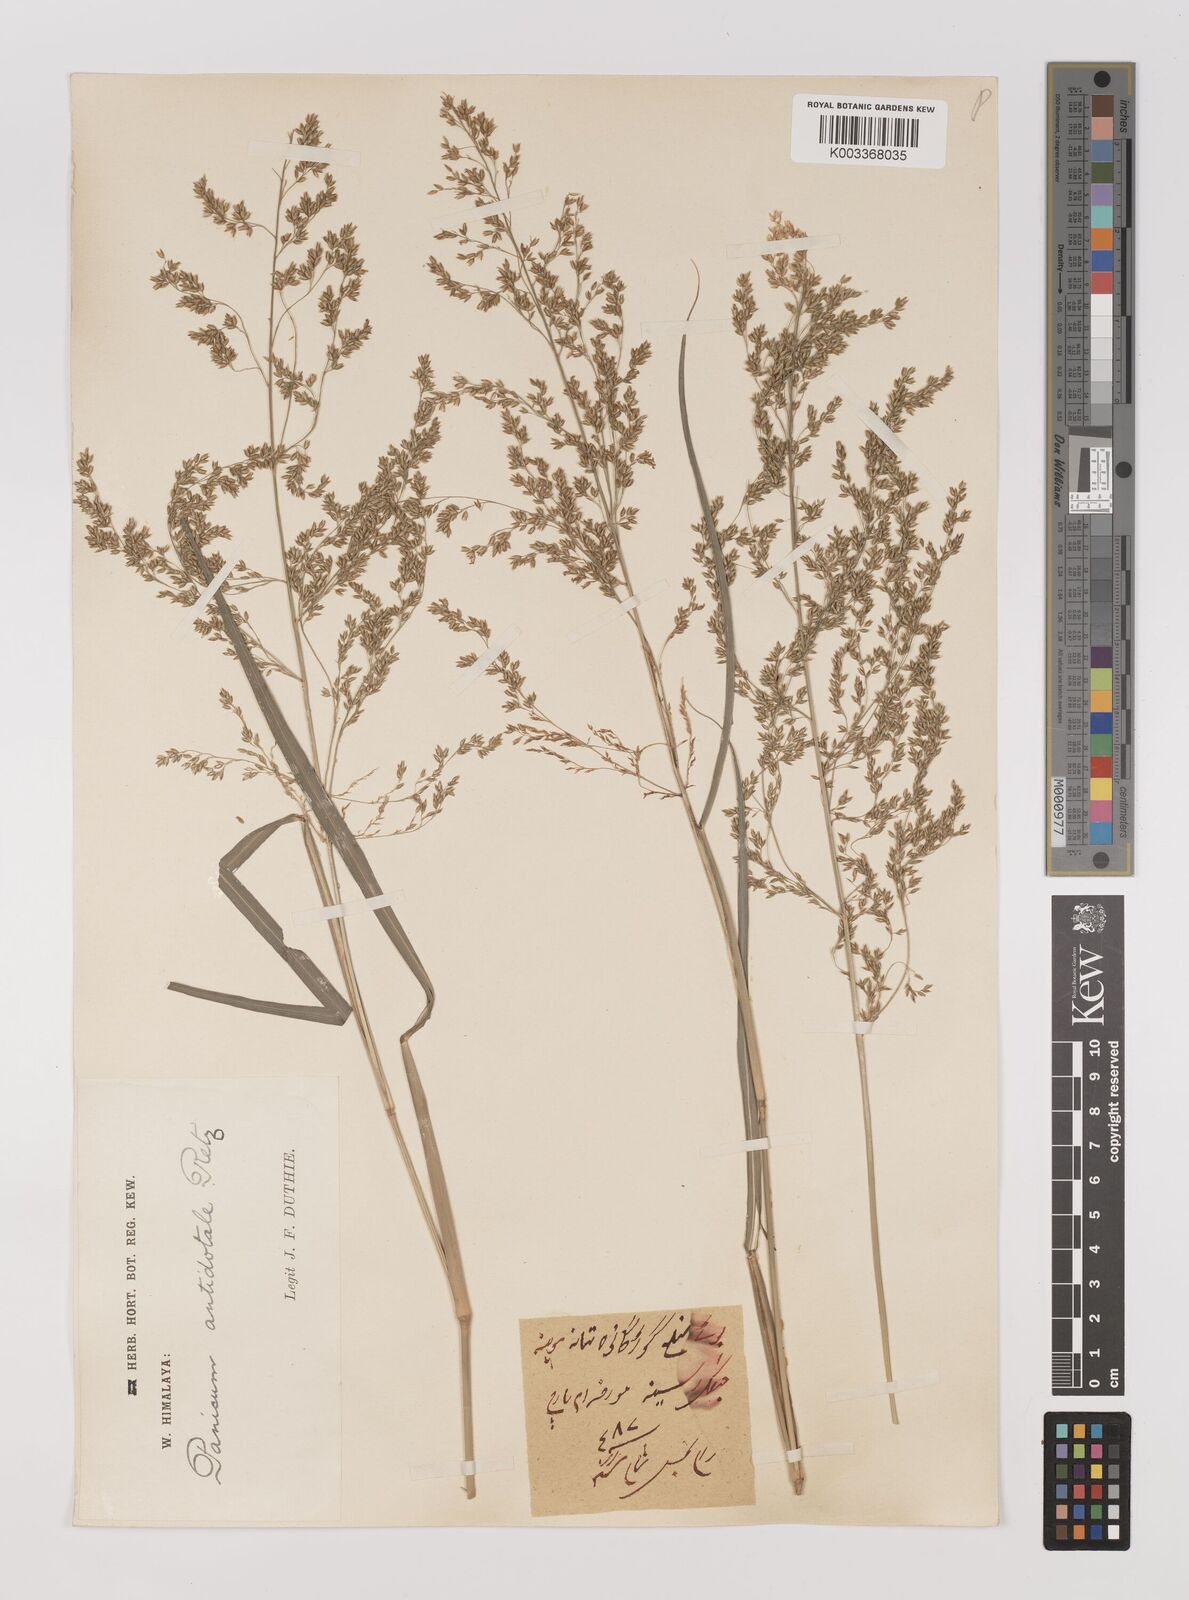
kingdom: Plantae
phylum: Tracheophyta
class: Liliopsida
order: Poales
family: Poaceae
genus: Panicum
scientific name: Panicum antidotale
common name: Blue panicum
